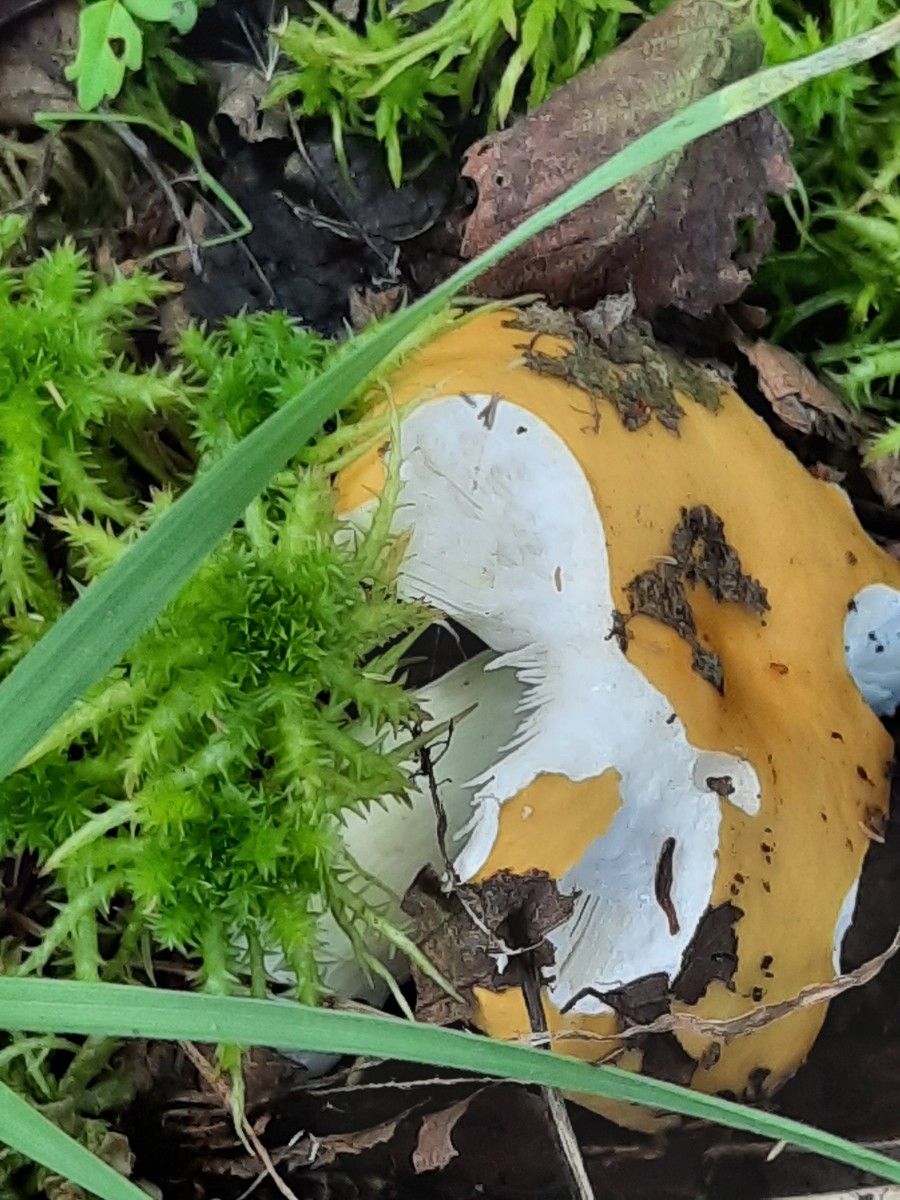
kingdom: Fungi
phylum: Basidiomycota
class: Agaricomycetes
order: Russulales
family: Russulaceae
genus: Russula
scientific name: Russula claroflava
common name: birke-skørhat
